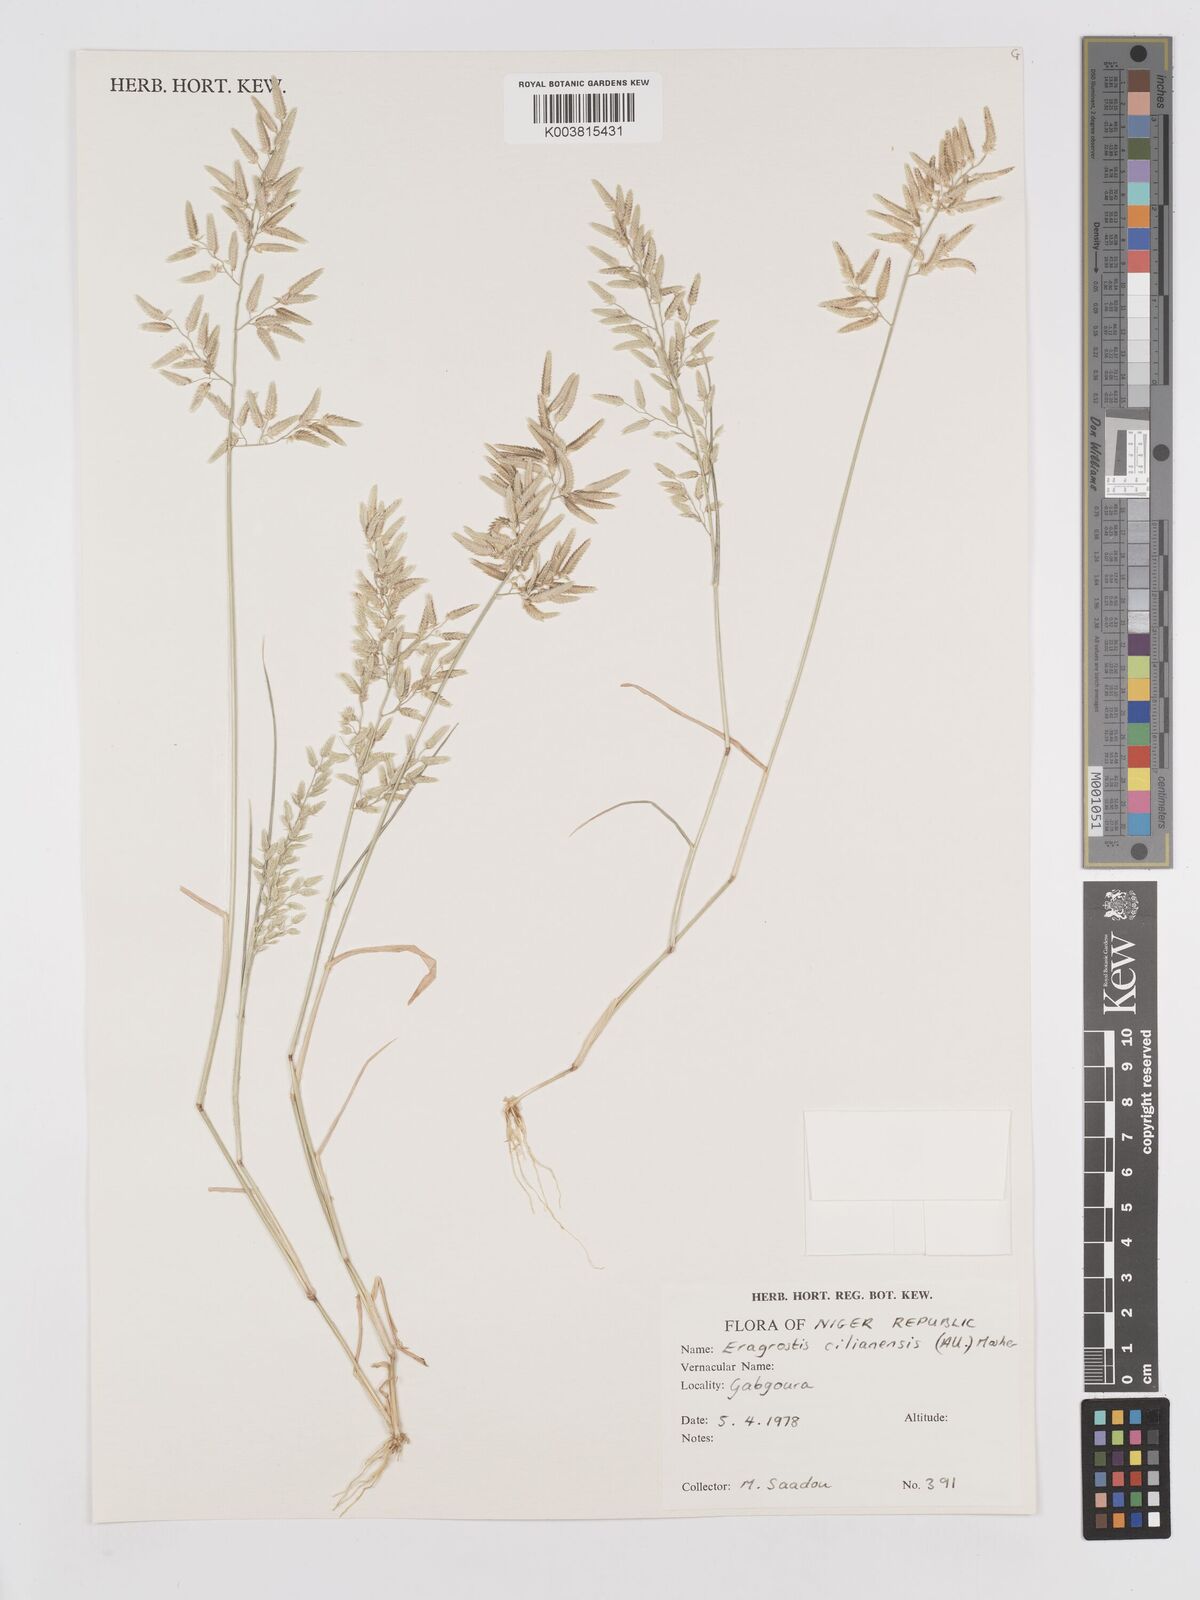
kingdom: Plantae
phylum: Tracheophyta
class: Liliopsida
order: Poales
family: Poaceae
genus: Eragrostis
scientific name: Eragrostis cilianensis
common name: Stinkgrass
